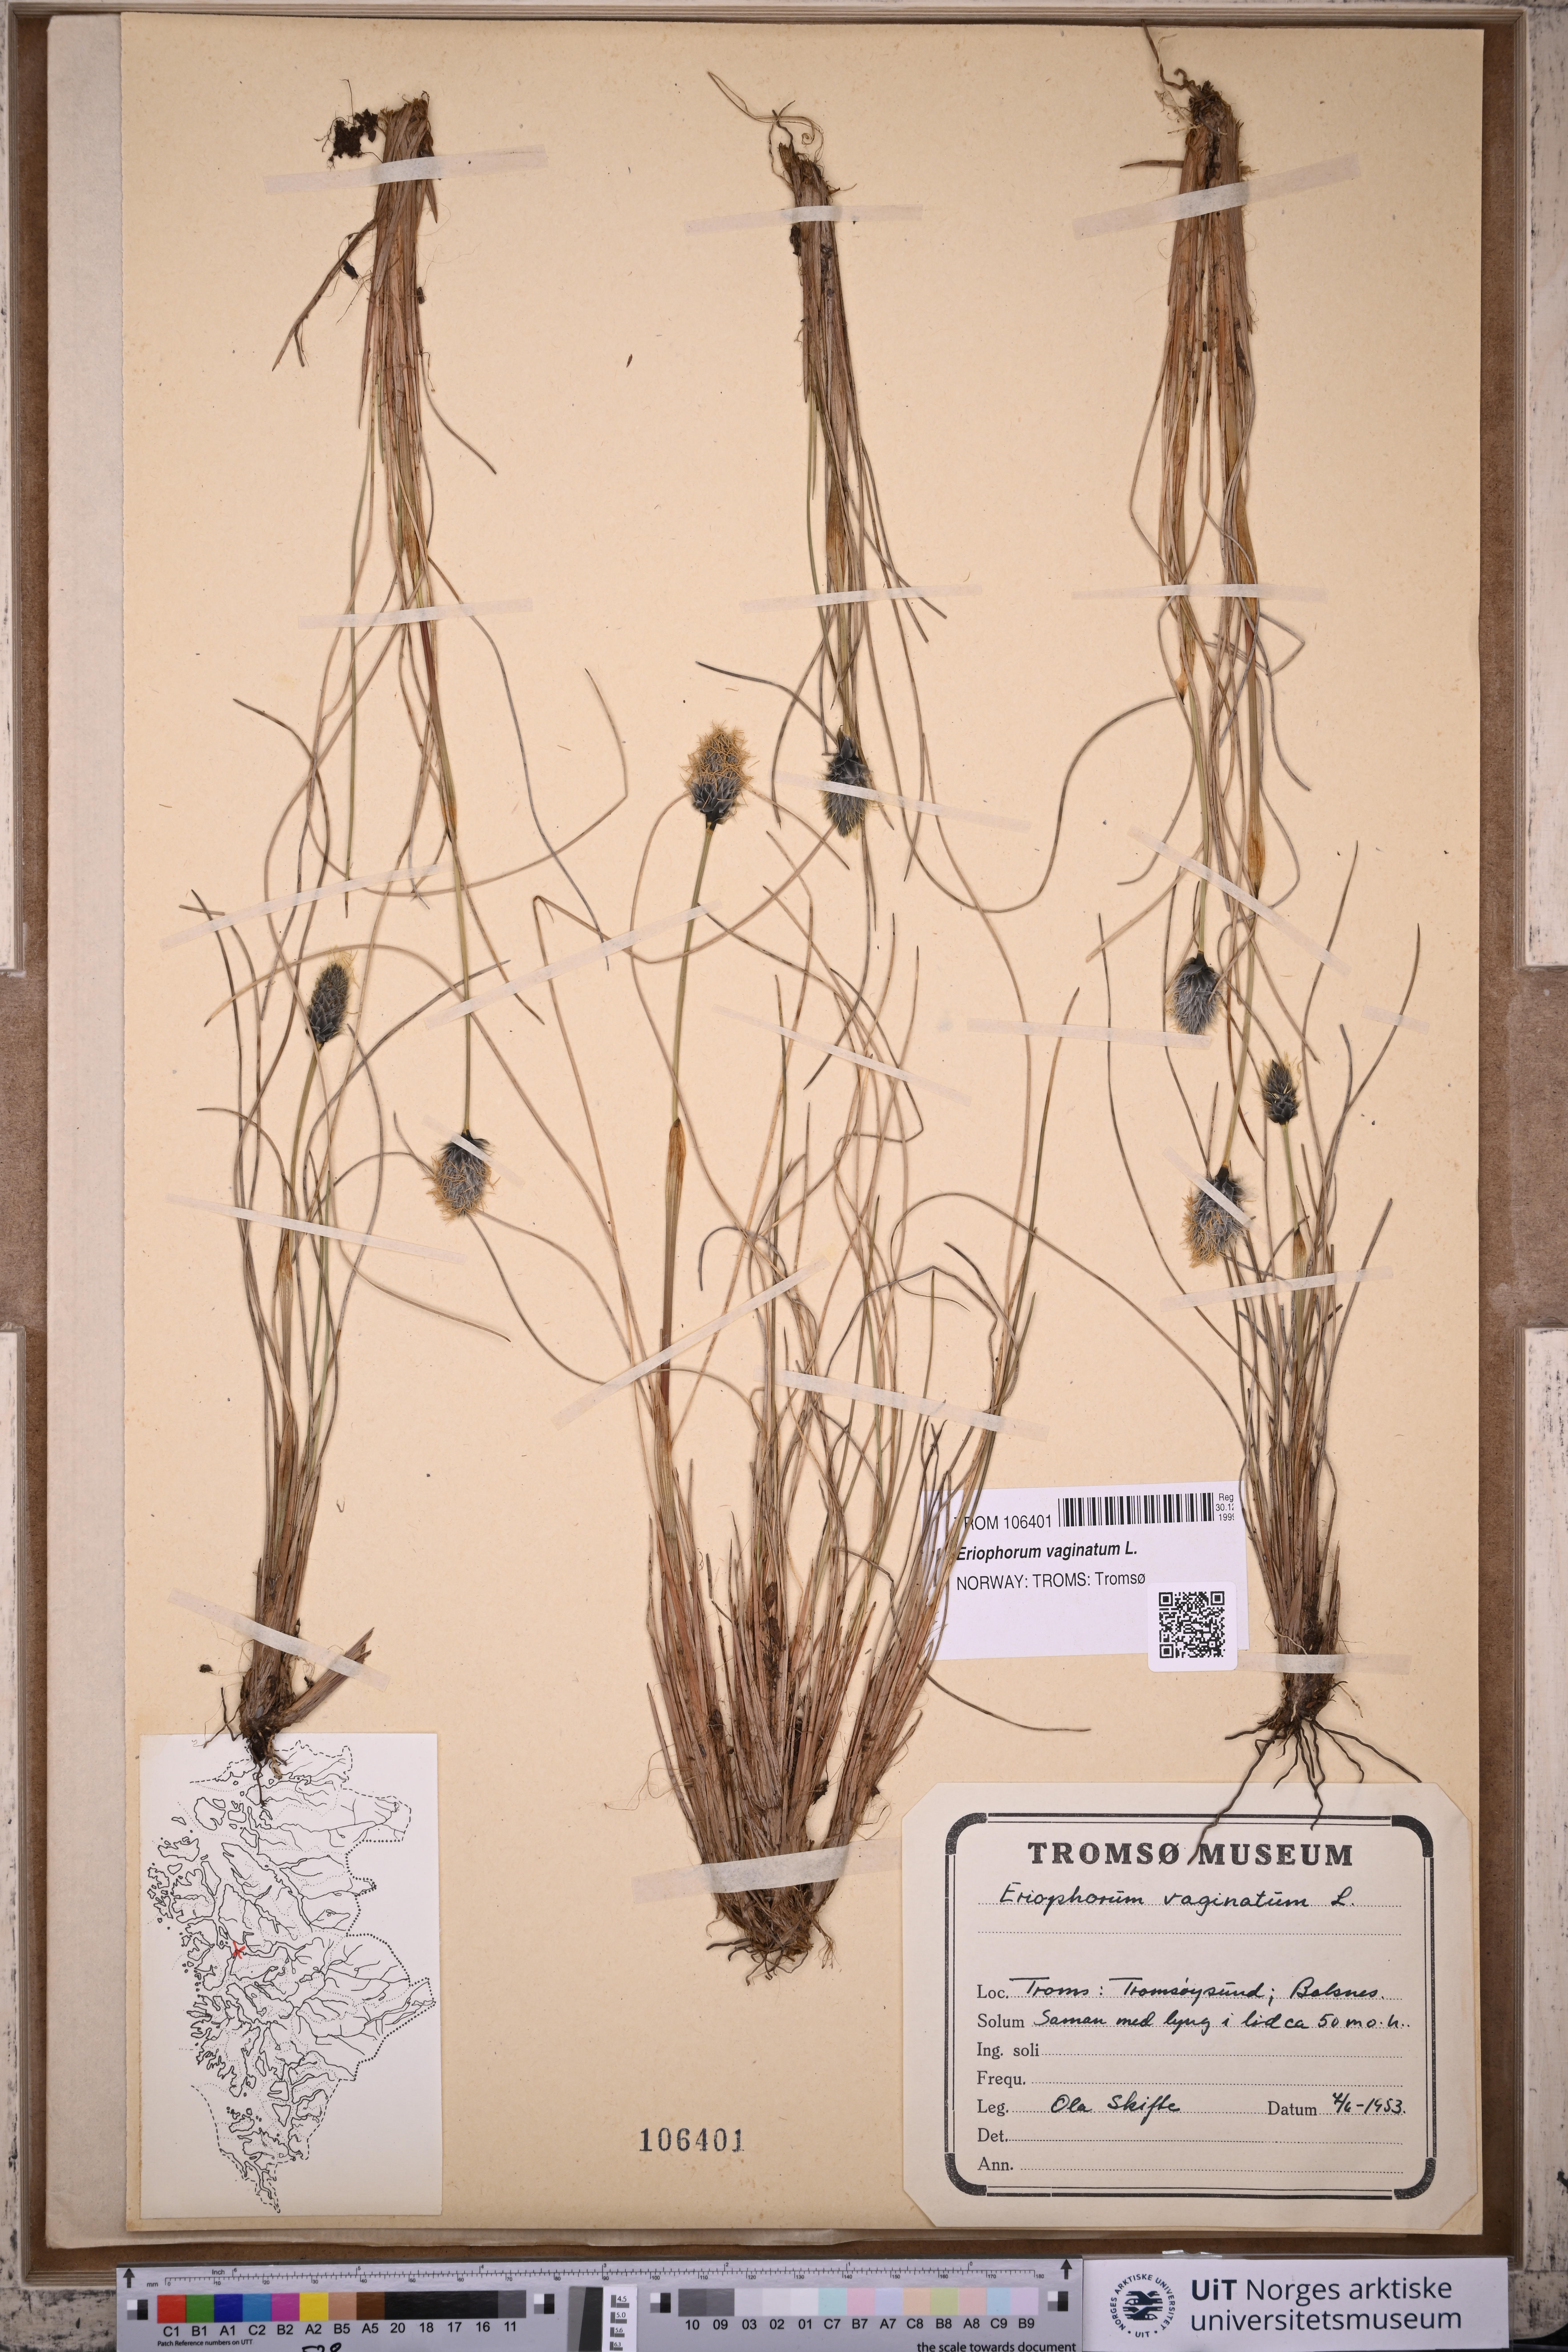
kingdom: Plantae
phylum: Tracheophyta
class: Liliopsida
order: Poales
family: Cyperaceae
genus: Eriophorum
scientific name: Eriophorum vaginatum
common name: Hare's-tail cottongrass
